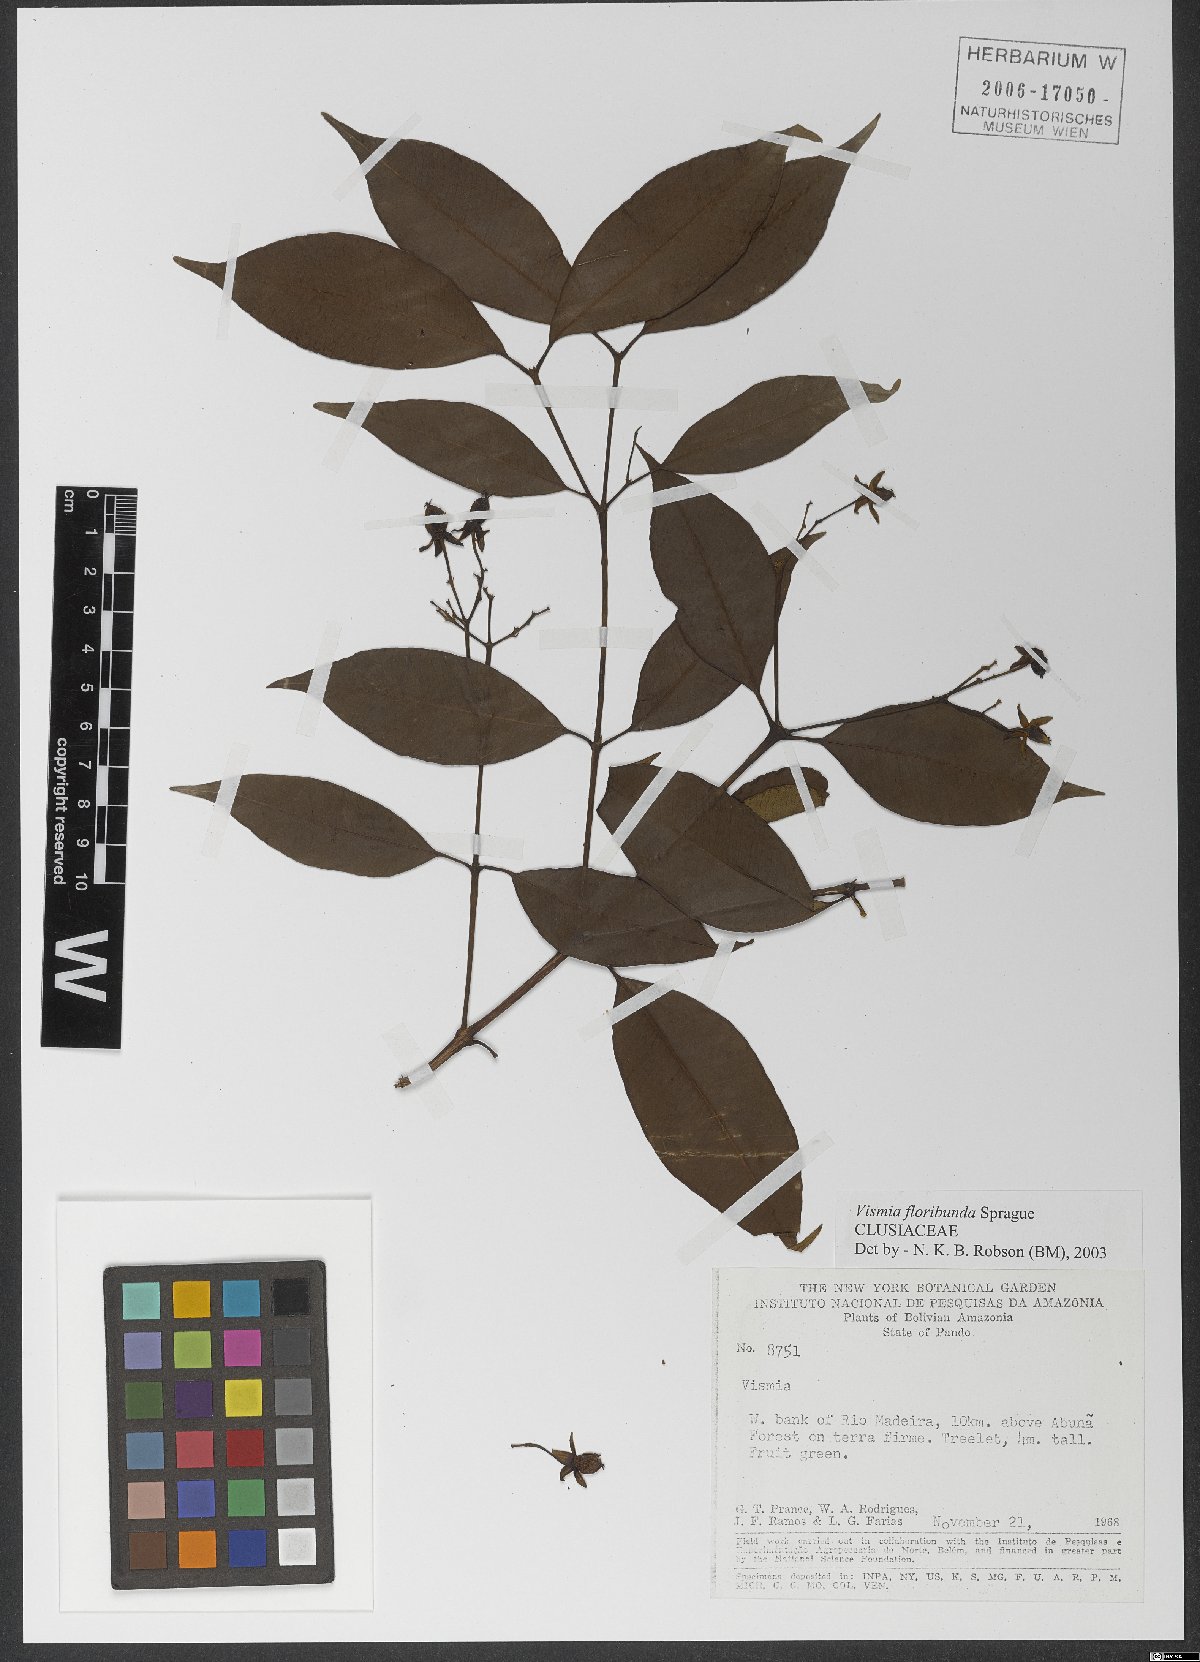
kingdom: Plantae
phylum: Tracheophyta
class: Magnoliopsida
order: Malpighiales
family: Hypericaceae
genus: Vismia
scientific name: Vismia tenuinervia
